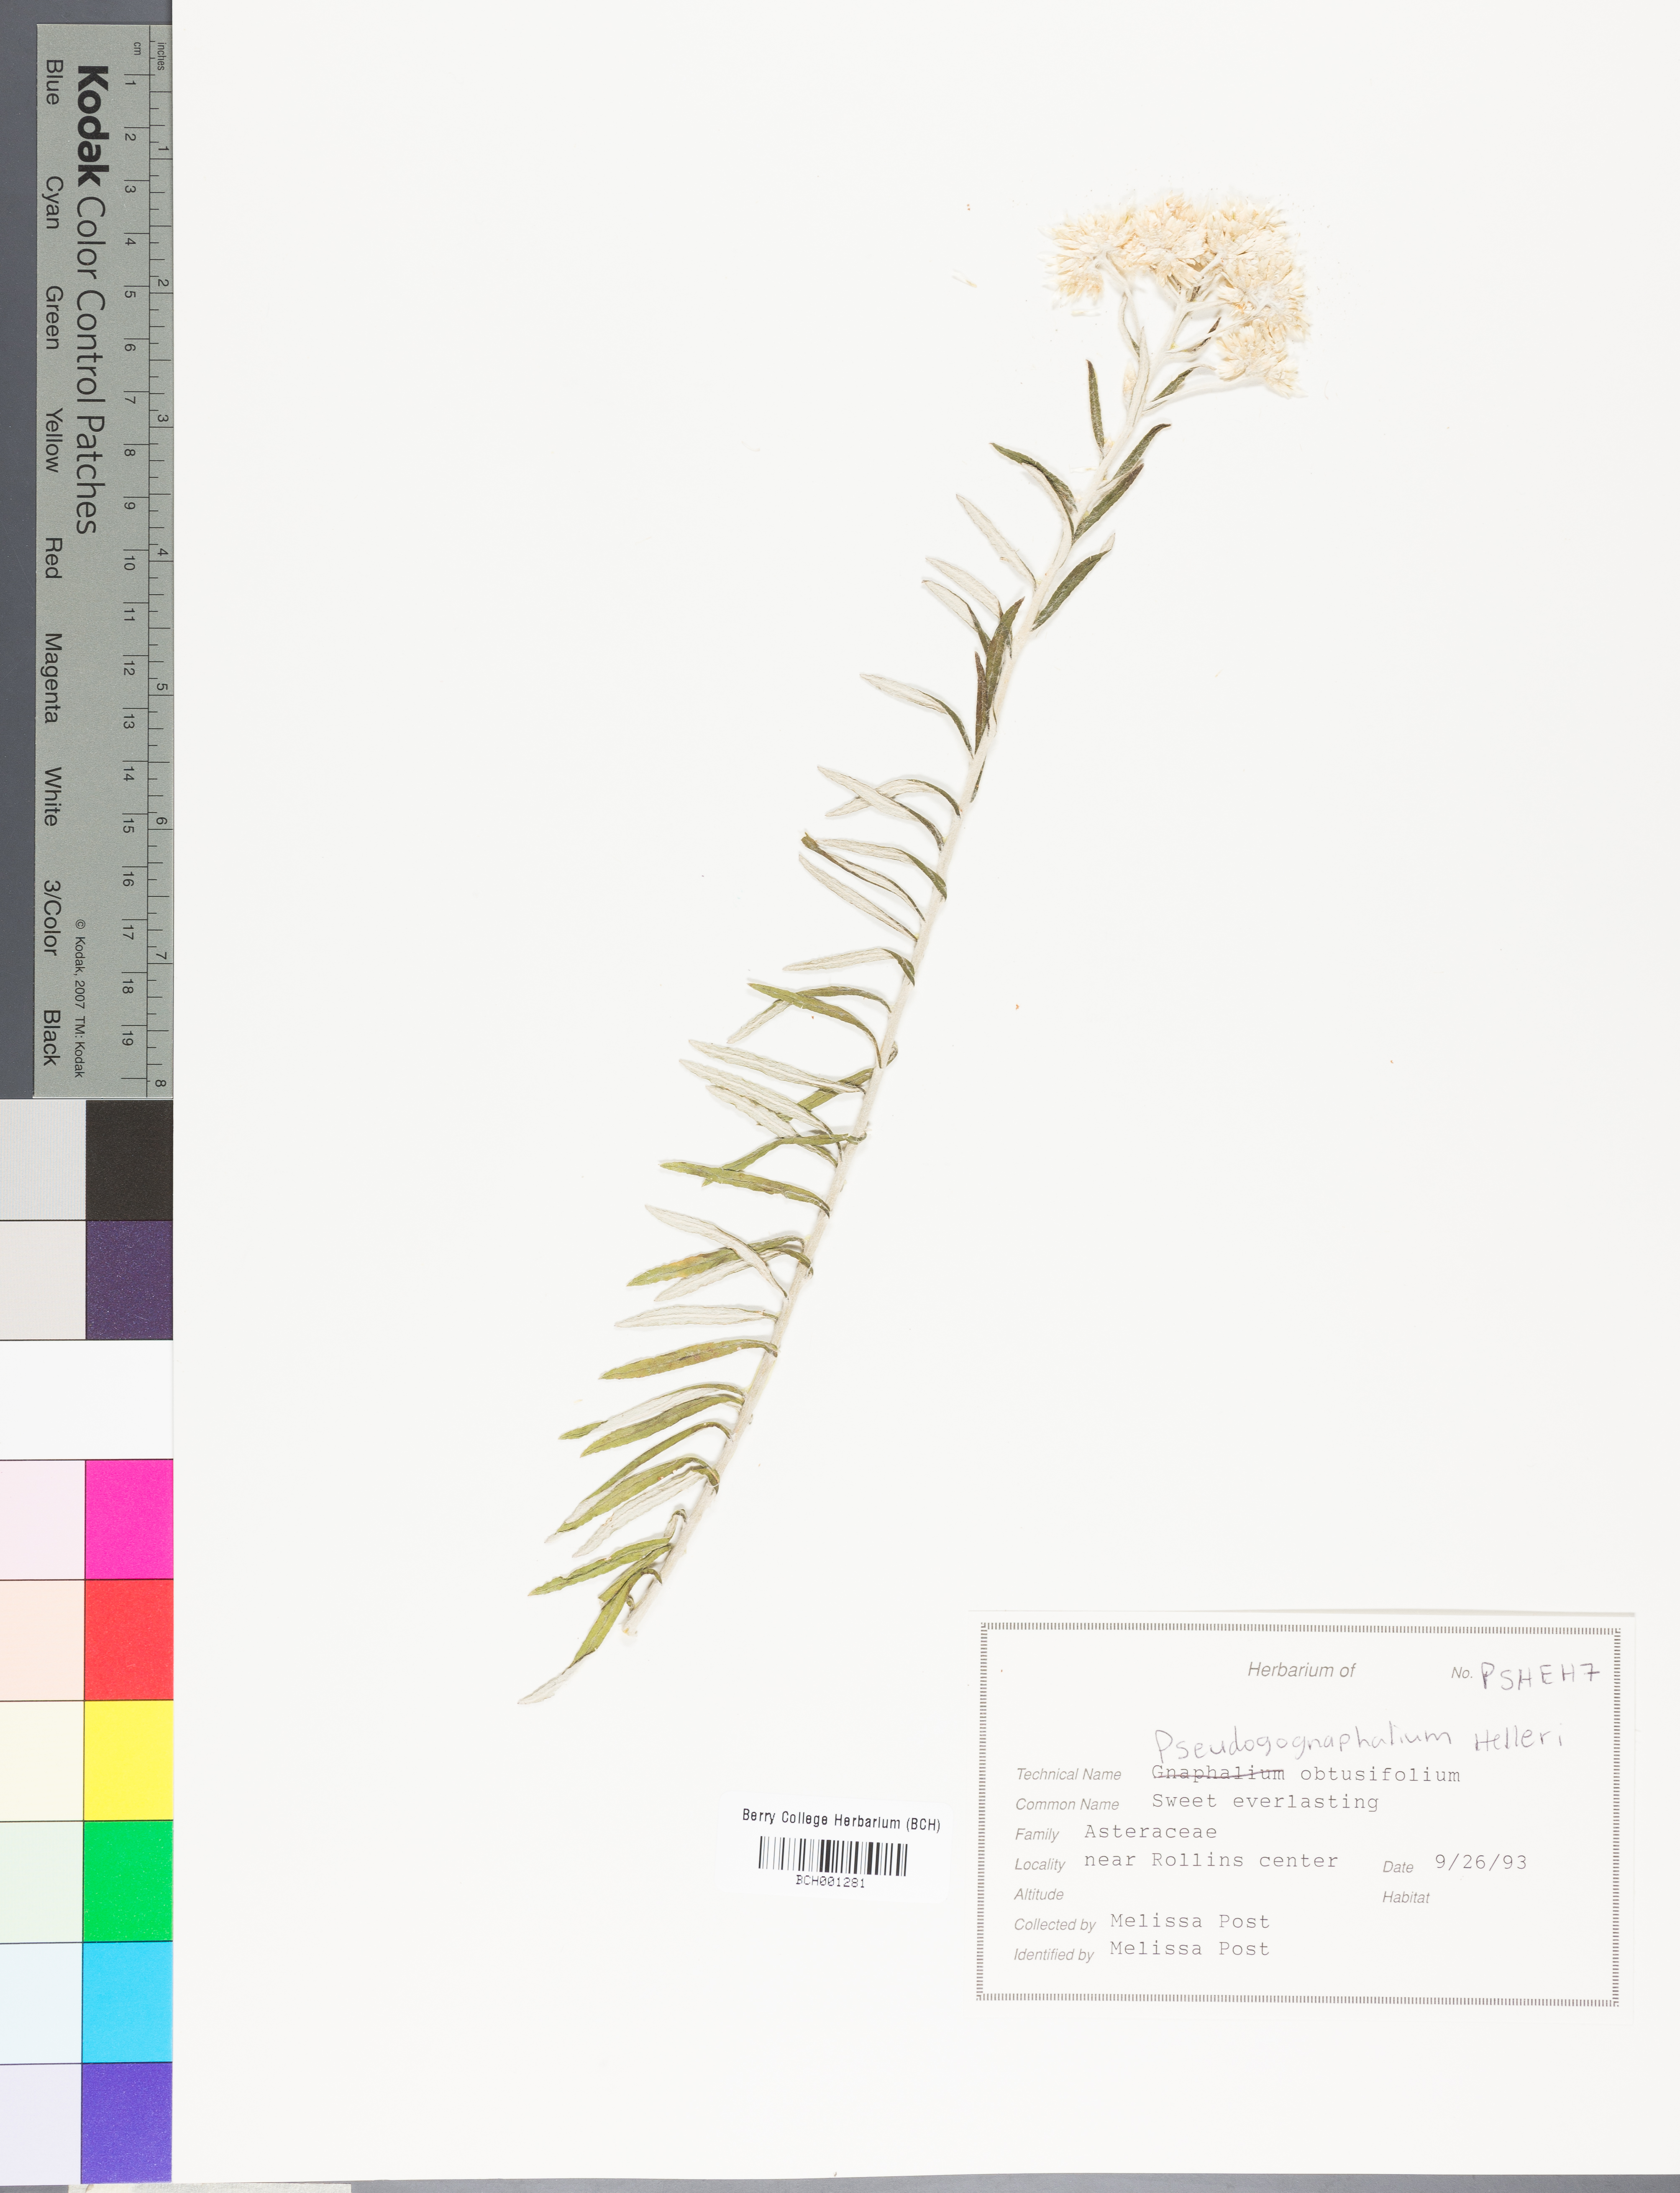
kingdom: Plantae
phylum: Tracheophyta
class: Magnoliopsida
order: Asterales
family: Asteraceae
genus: Helenium
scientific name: Helenium linifolium
